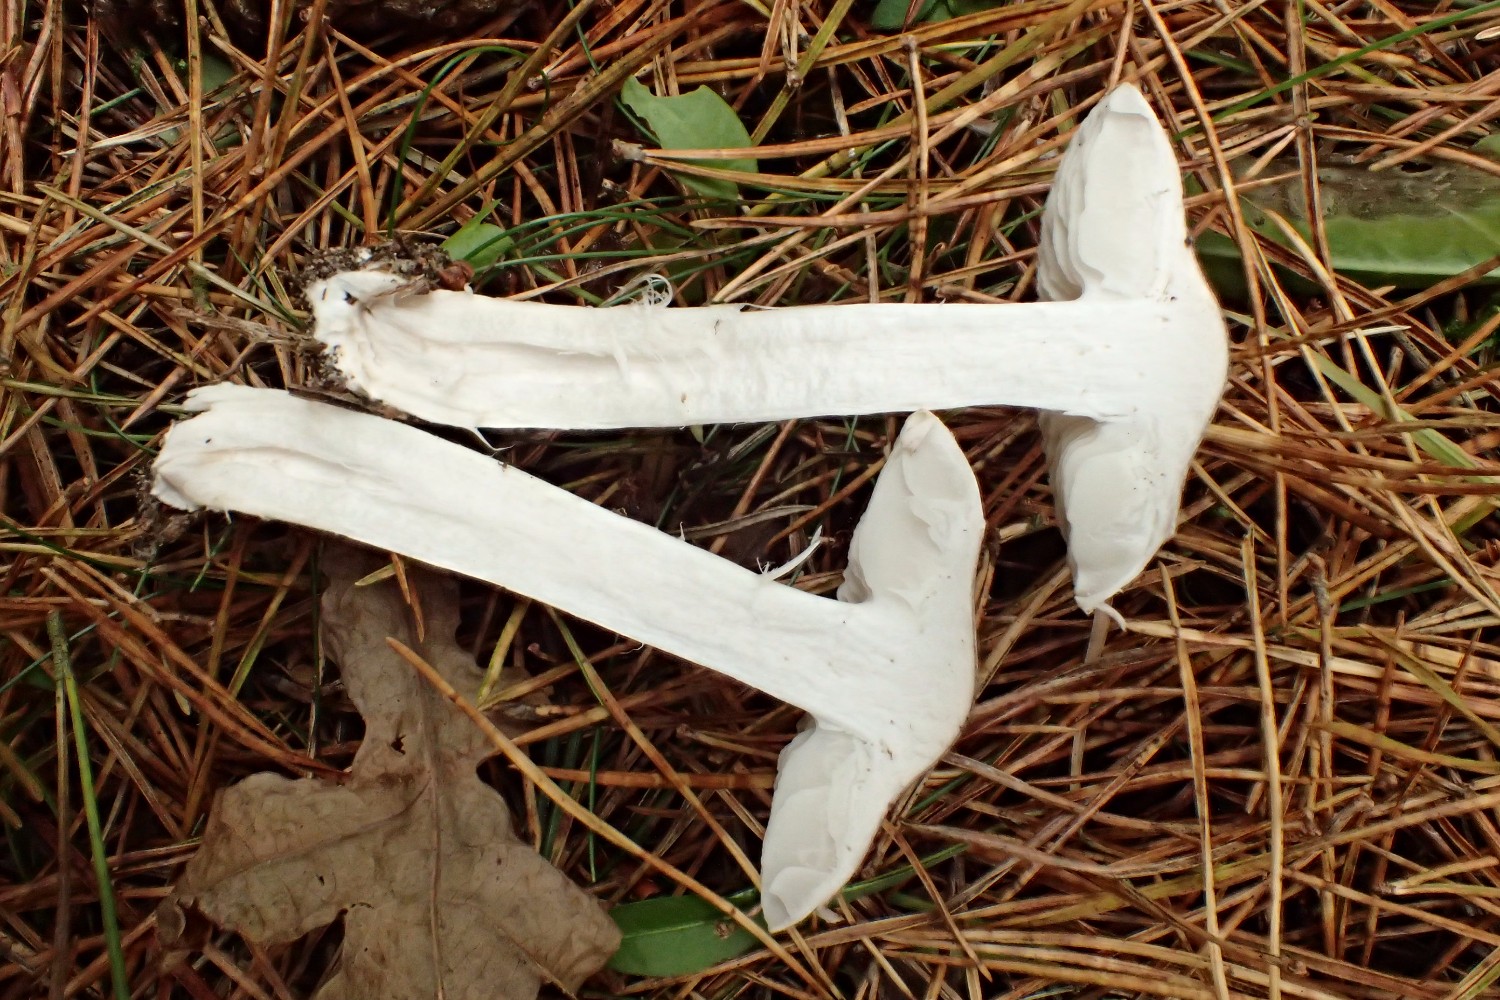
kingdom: Fungi
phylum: Basidiomycota
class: Agaricomycetes
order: Agaricales
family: Tricholomataceae
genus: Tricholoma
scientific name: Tricholoma terreum
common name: jordfarvet ridderhat
